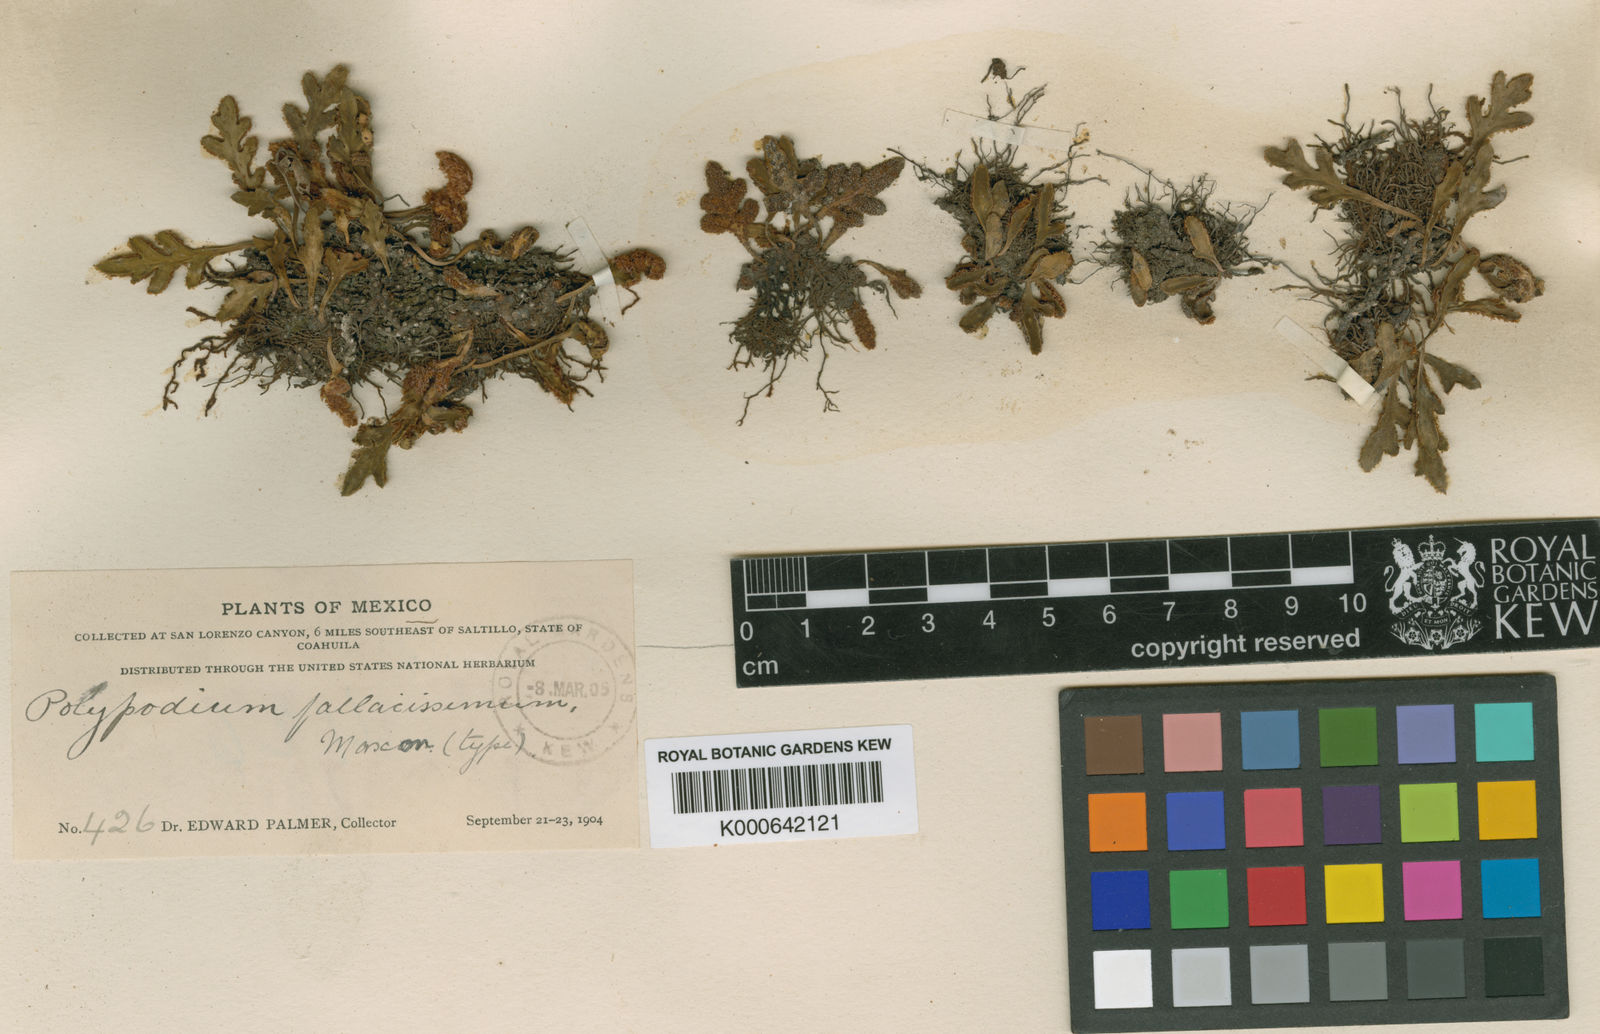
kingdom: Plantae
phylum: Tracheophyta
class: Polypodiopsida
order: Polypodiales
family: Polypodiaceae
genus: Pleopeltis
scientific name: Pleopeltis fallacissima
